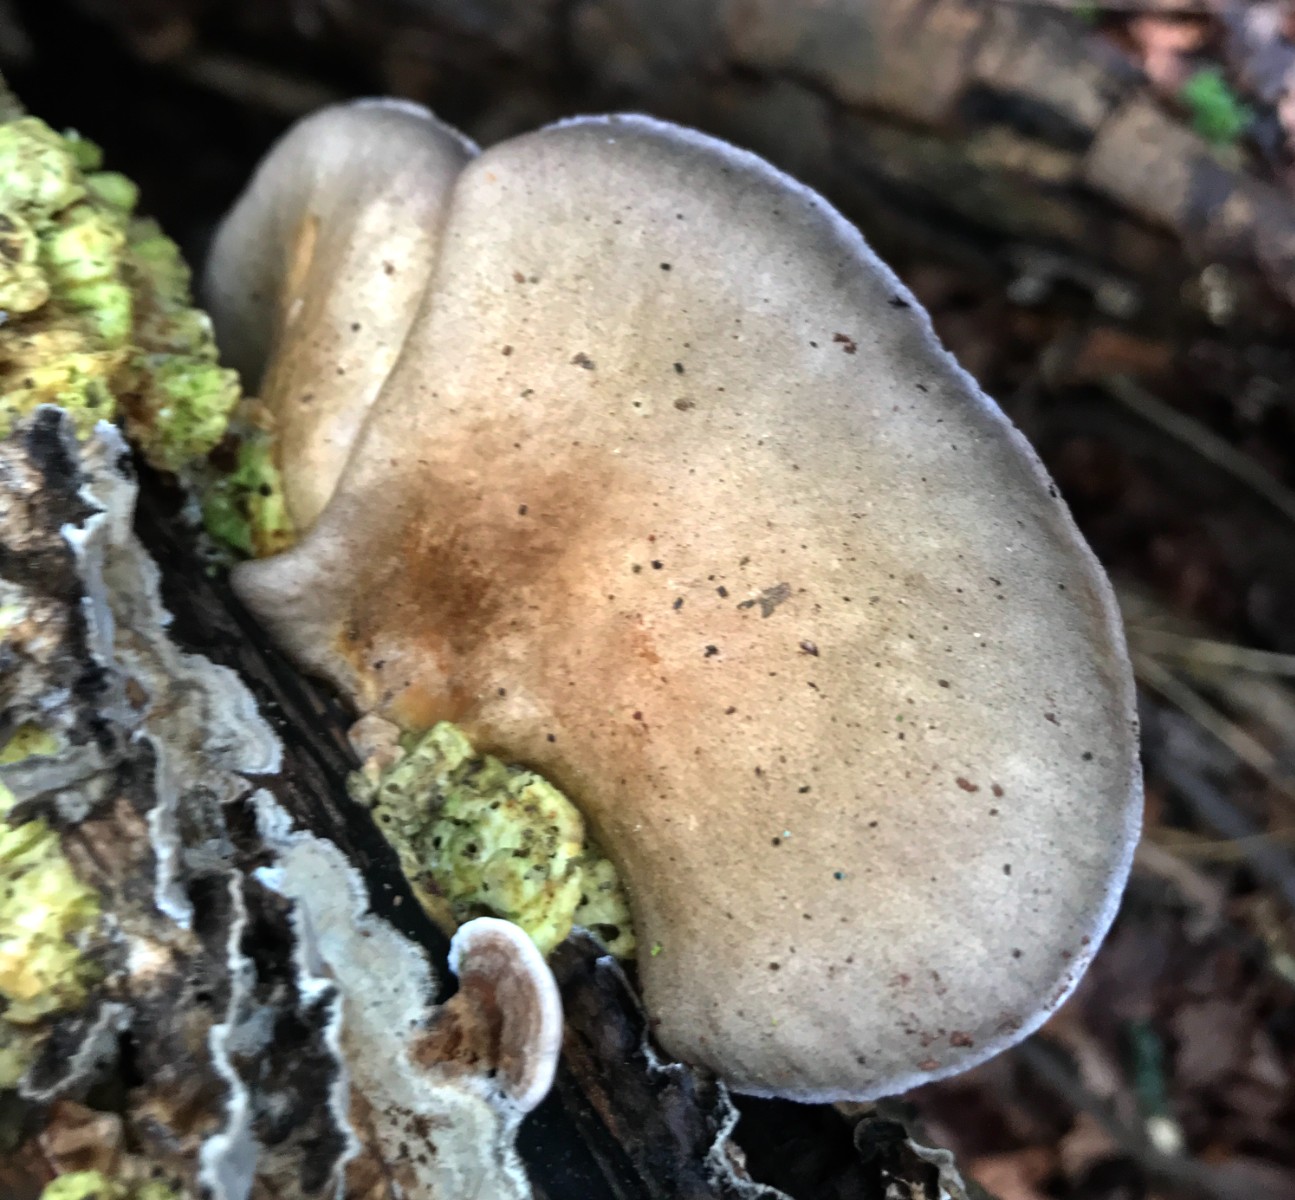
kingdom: Fungi
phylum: Basidiomycota
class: Agaricomycetes
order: Agaricales
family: Sarcomyxaceae
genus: Sarcomyxa
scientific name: Sarcomyxa serotina
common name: gummihat
